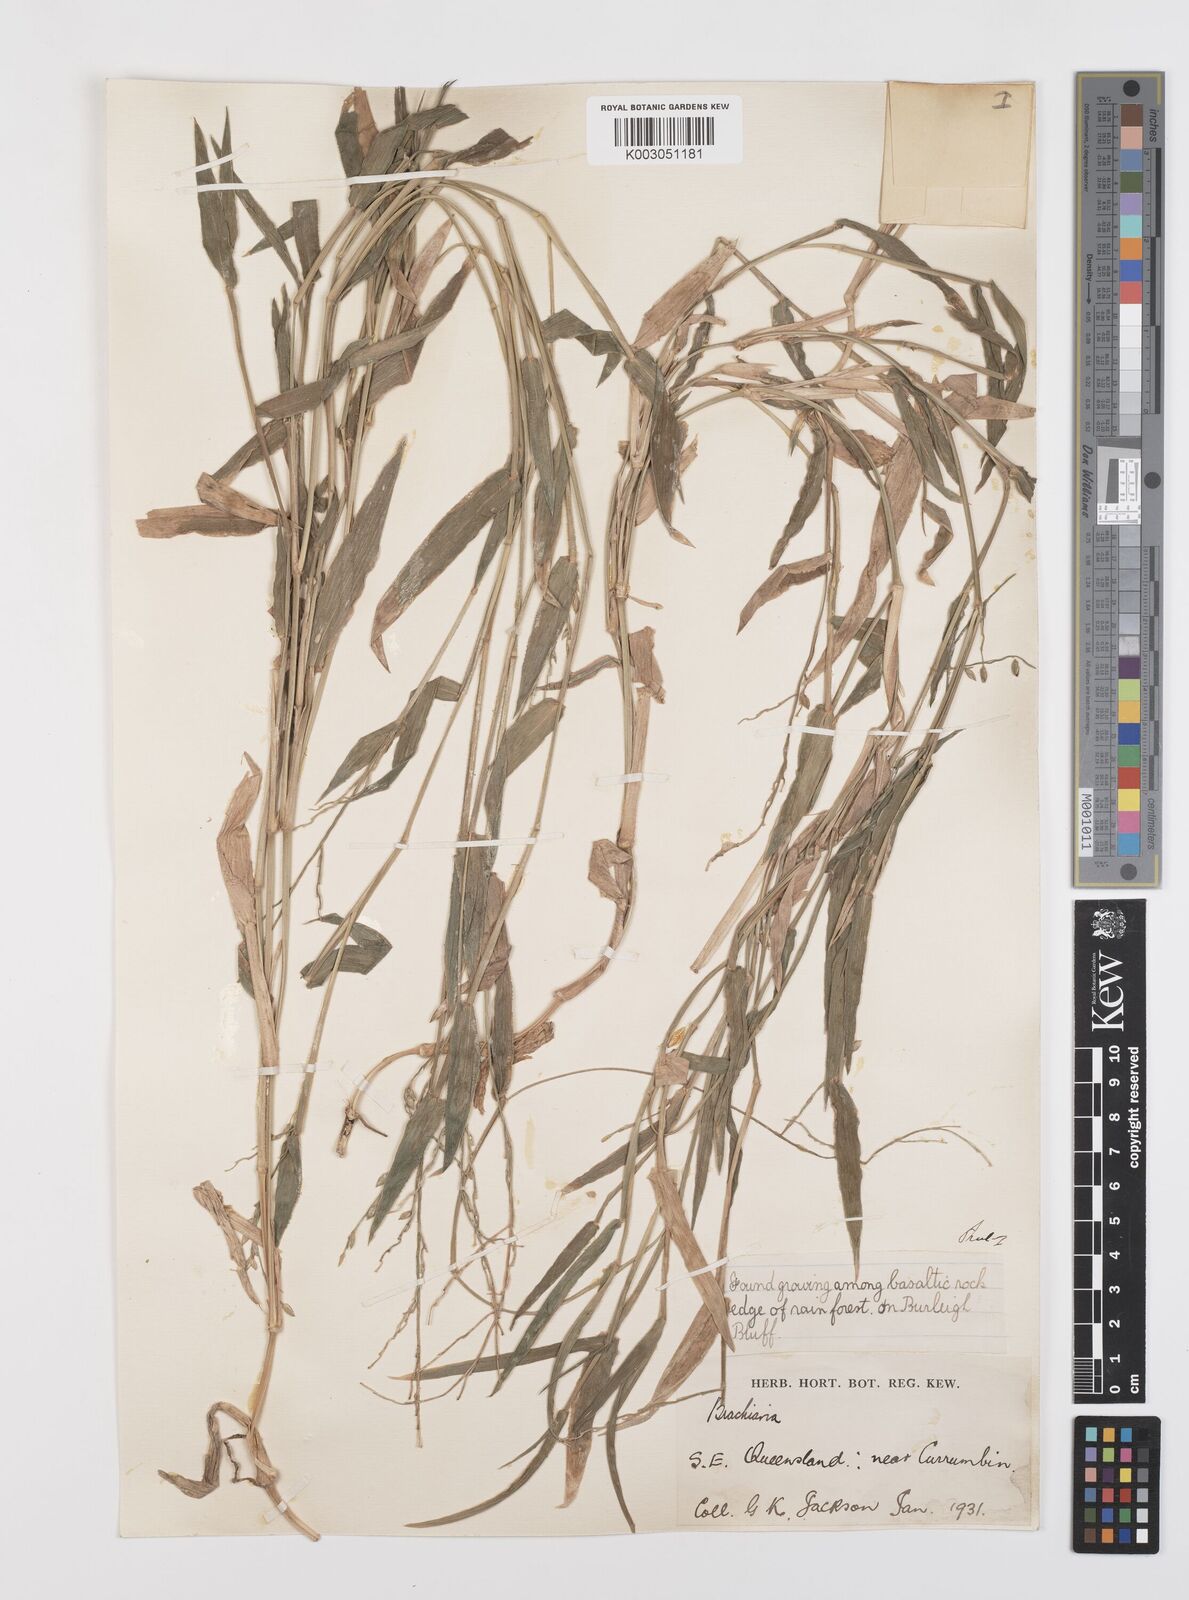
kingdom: Plantae
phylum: Tracheophyta
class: Liliopsida
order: Poales
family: Poaceae
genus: Urochloa
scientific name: Urochloa foliosa
